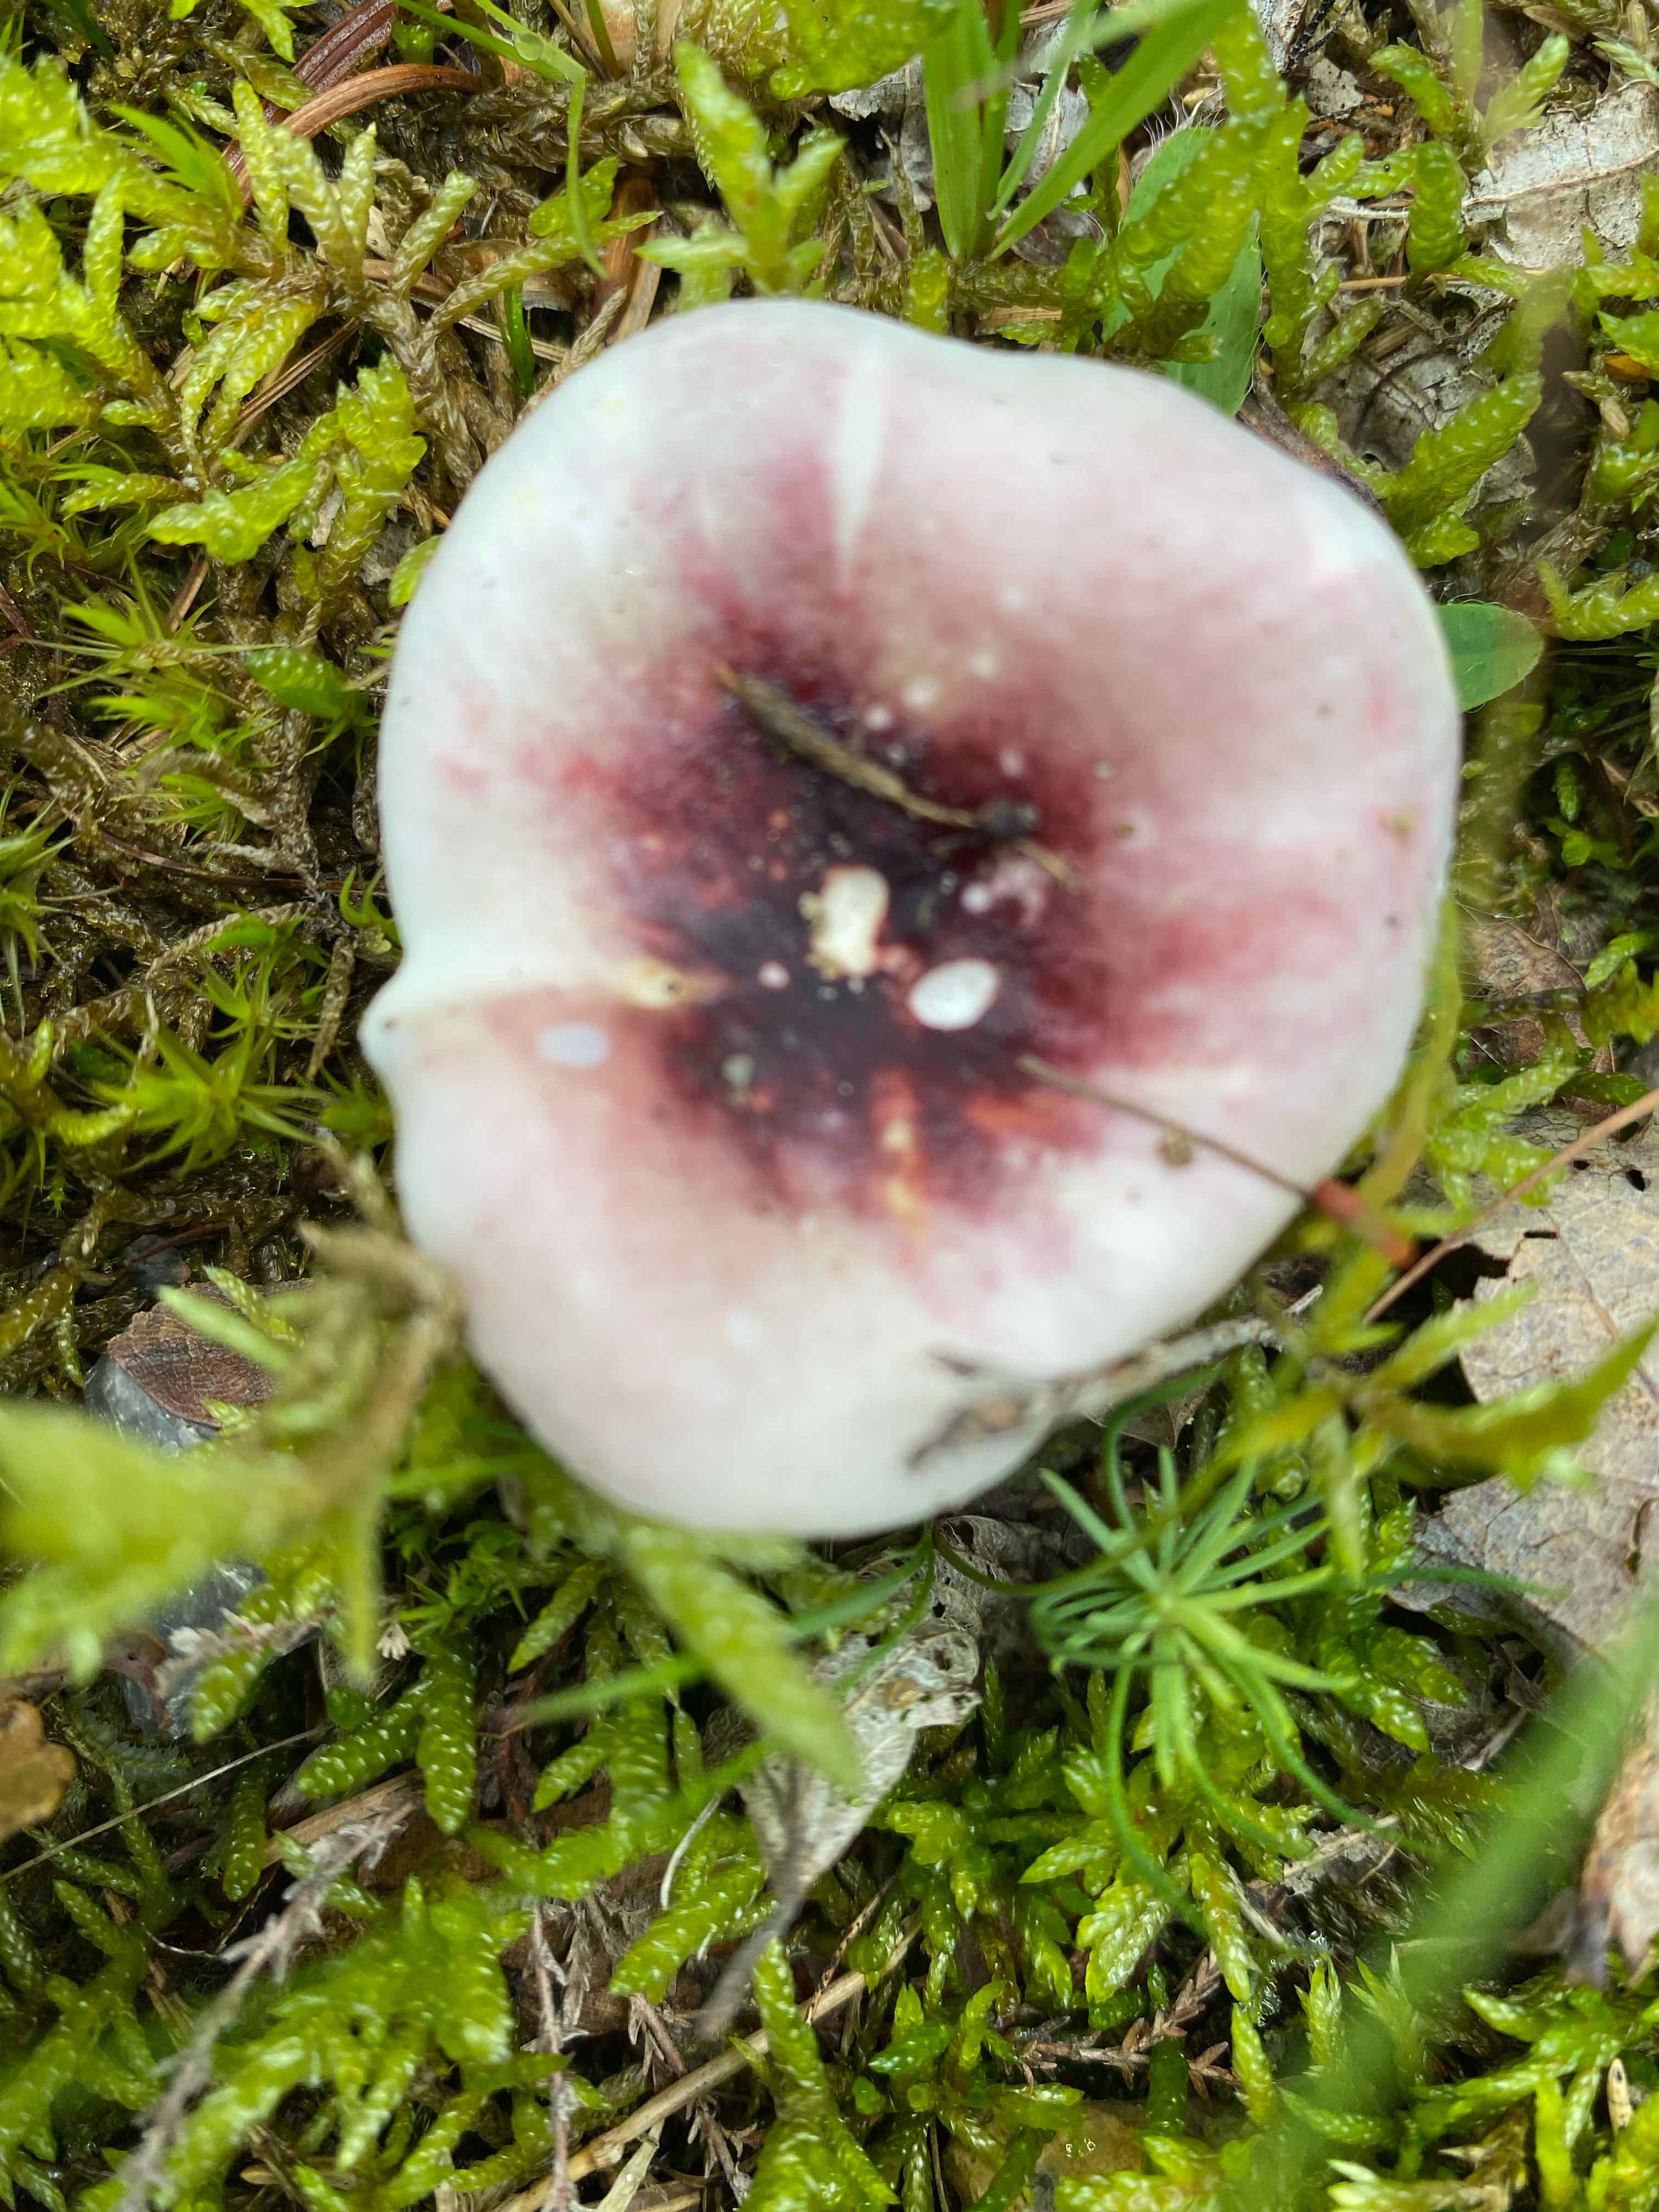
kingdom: Fungi
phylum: Basidiomycota
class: Agaricomycetes
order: Russulales
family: Russulaceae
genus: Russula
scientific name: Russula
